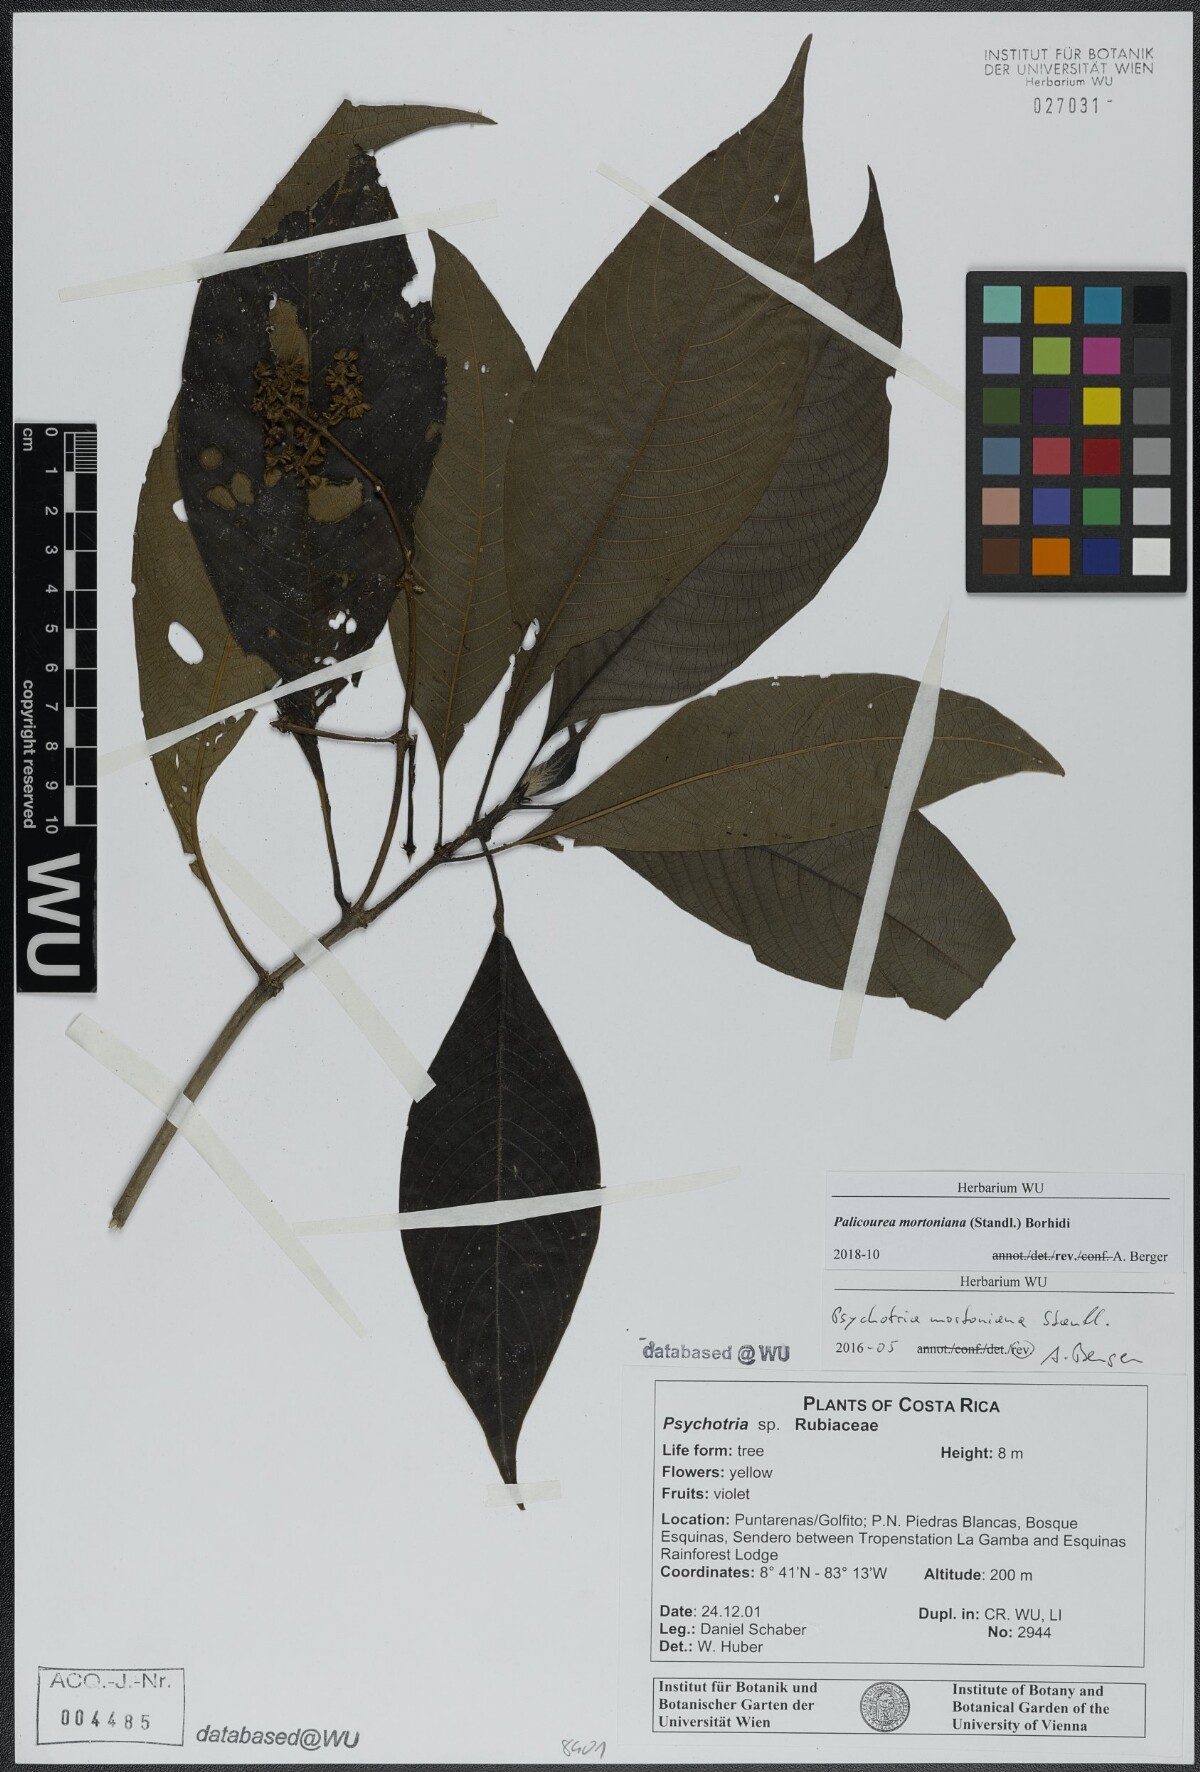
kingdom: Plantae
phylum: Tracheophyta
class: Magnoliopsida
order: Gentianales
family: Rubiaceae
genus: Palicourea
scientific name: Palicourea mortoniana
